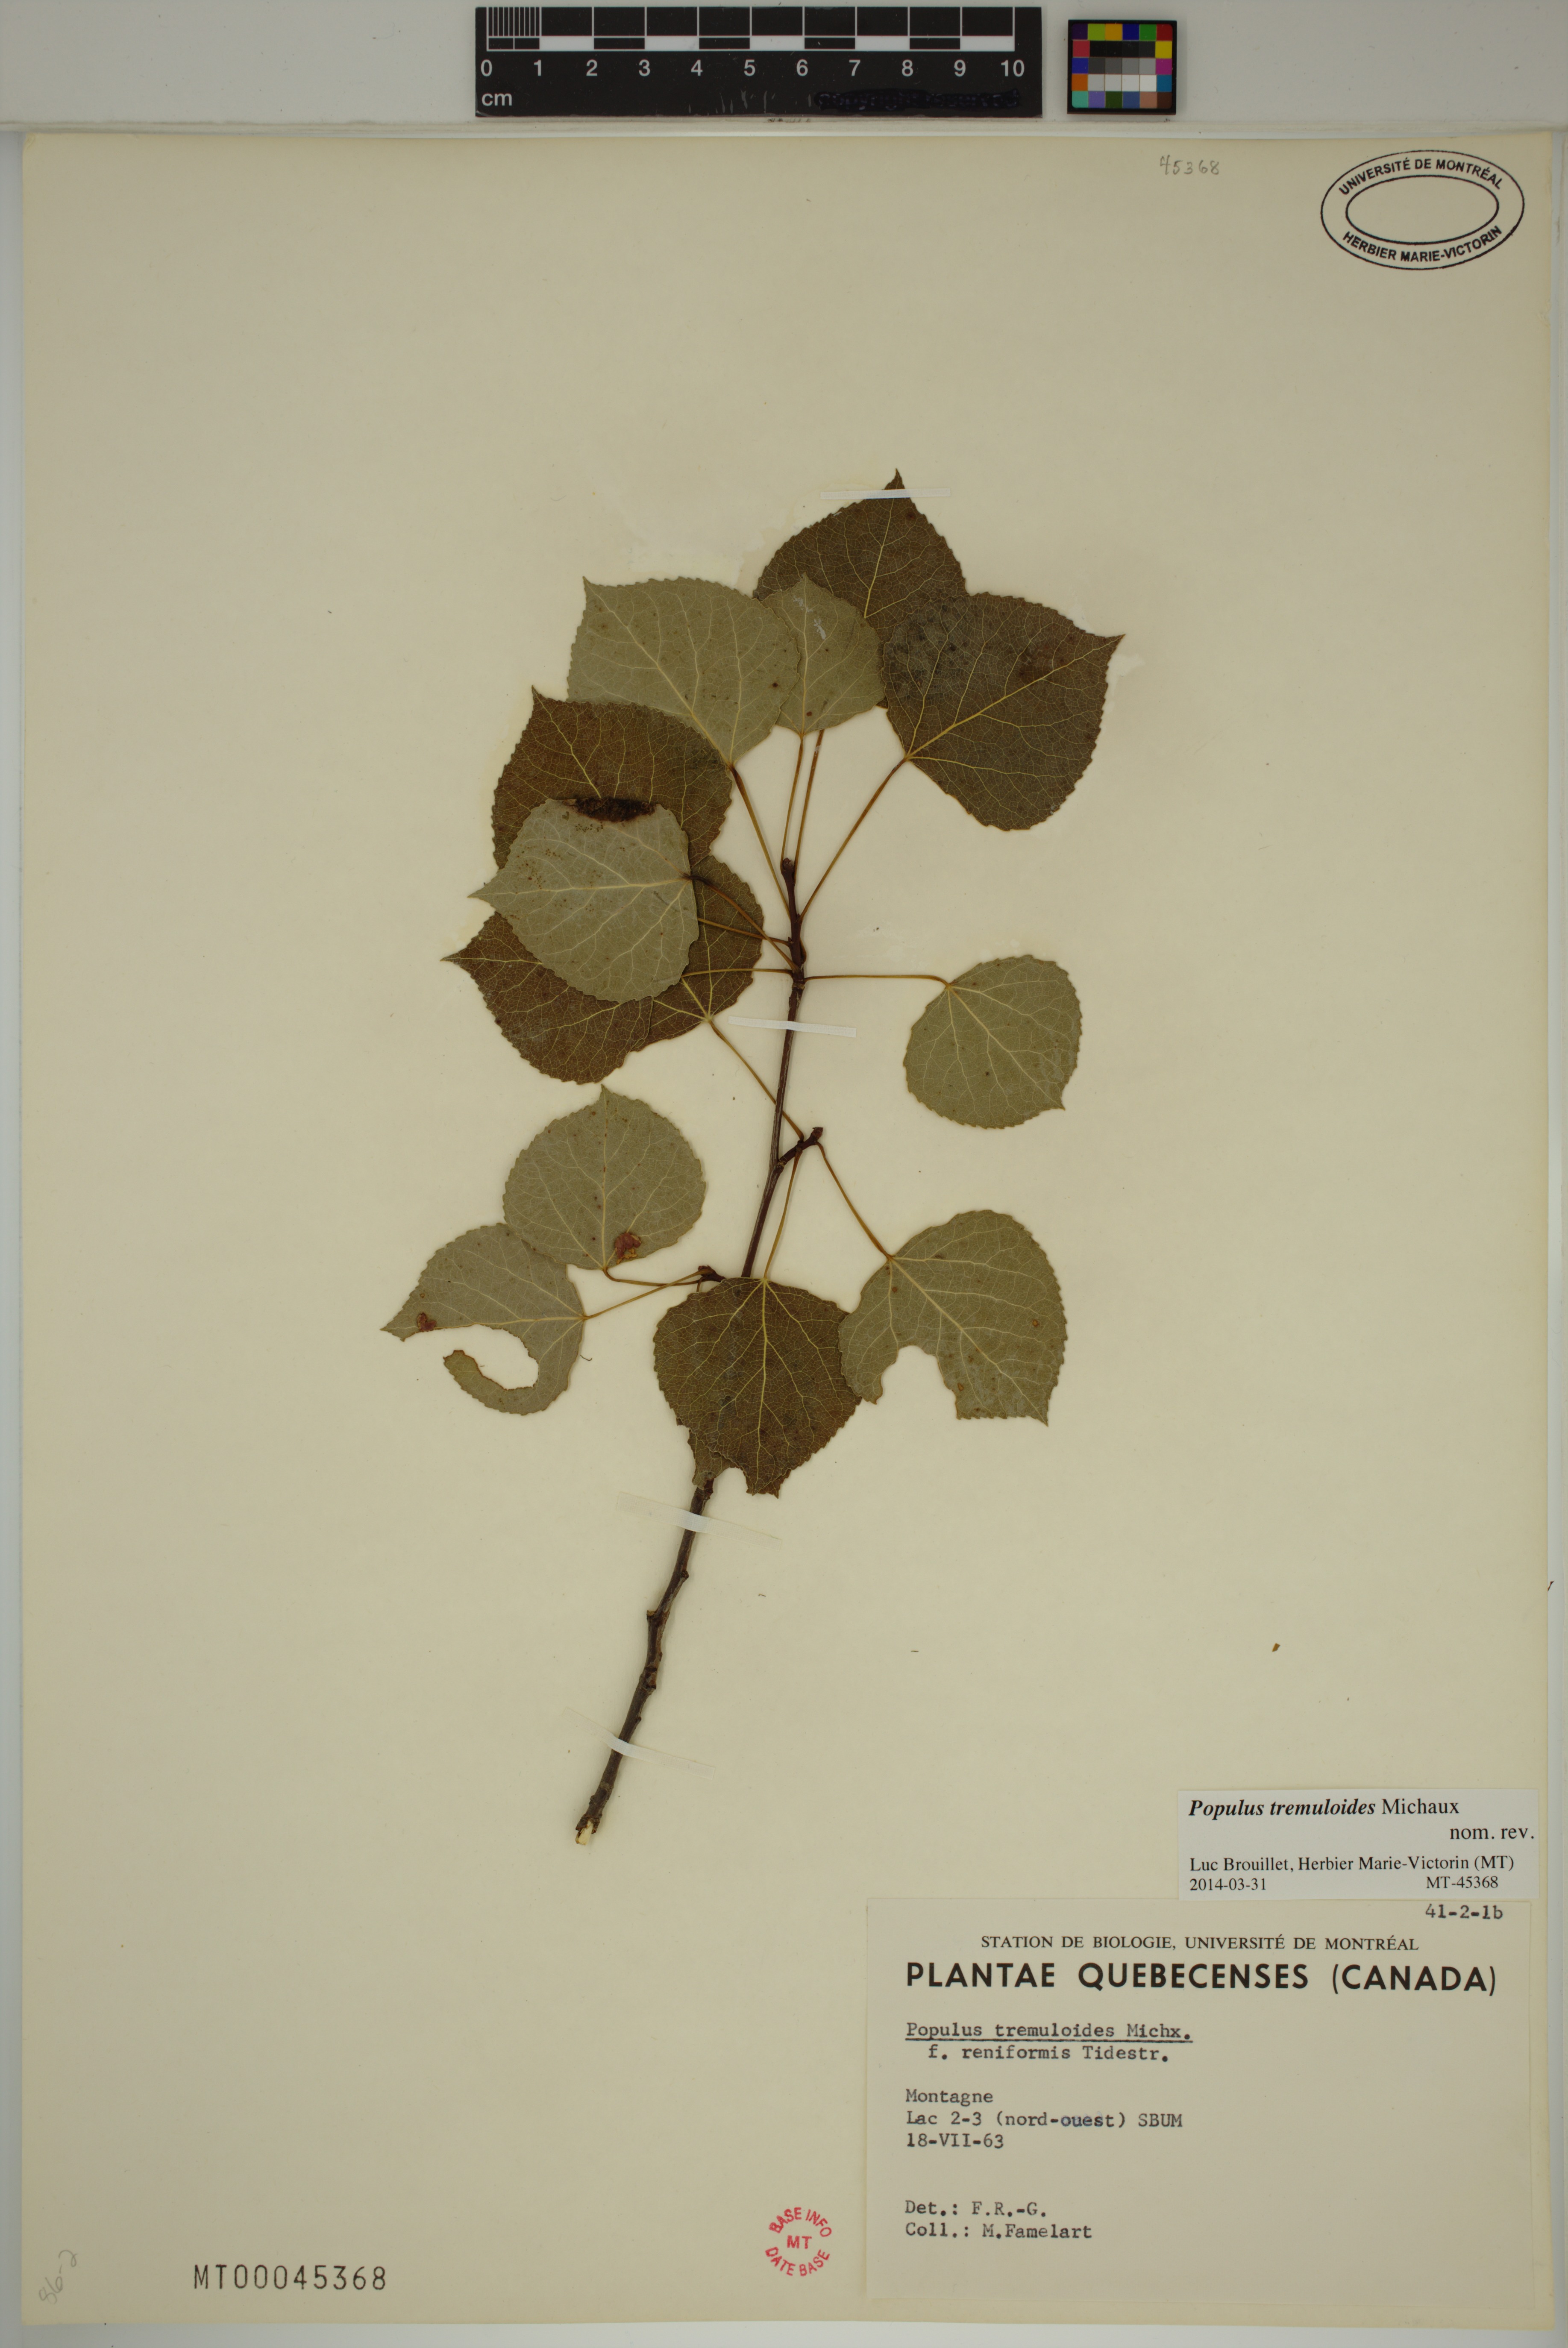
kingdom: Plantae
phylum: Tracheophyta
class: Magnoliopsida
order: Malpighiales
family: Salicaceae
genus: Populus
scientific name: Populus tremuloides
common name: Quaking aspen
